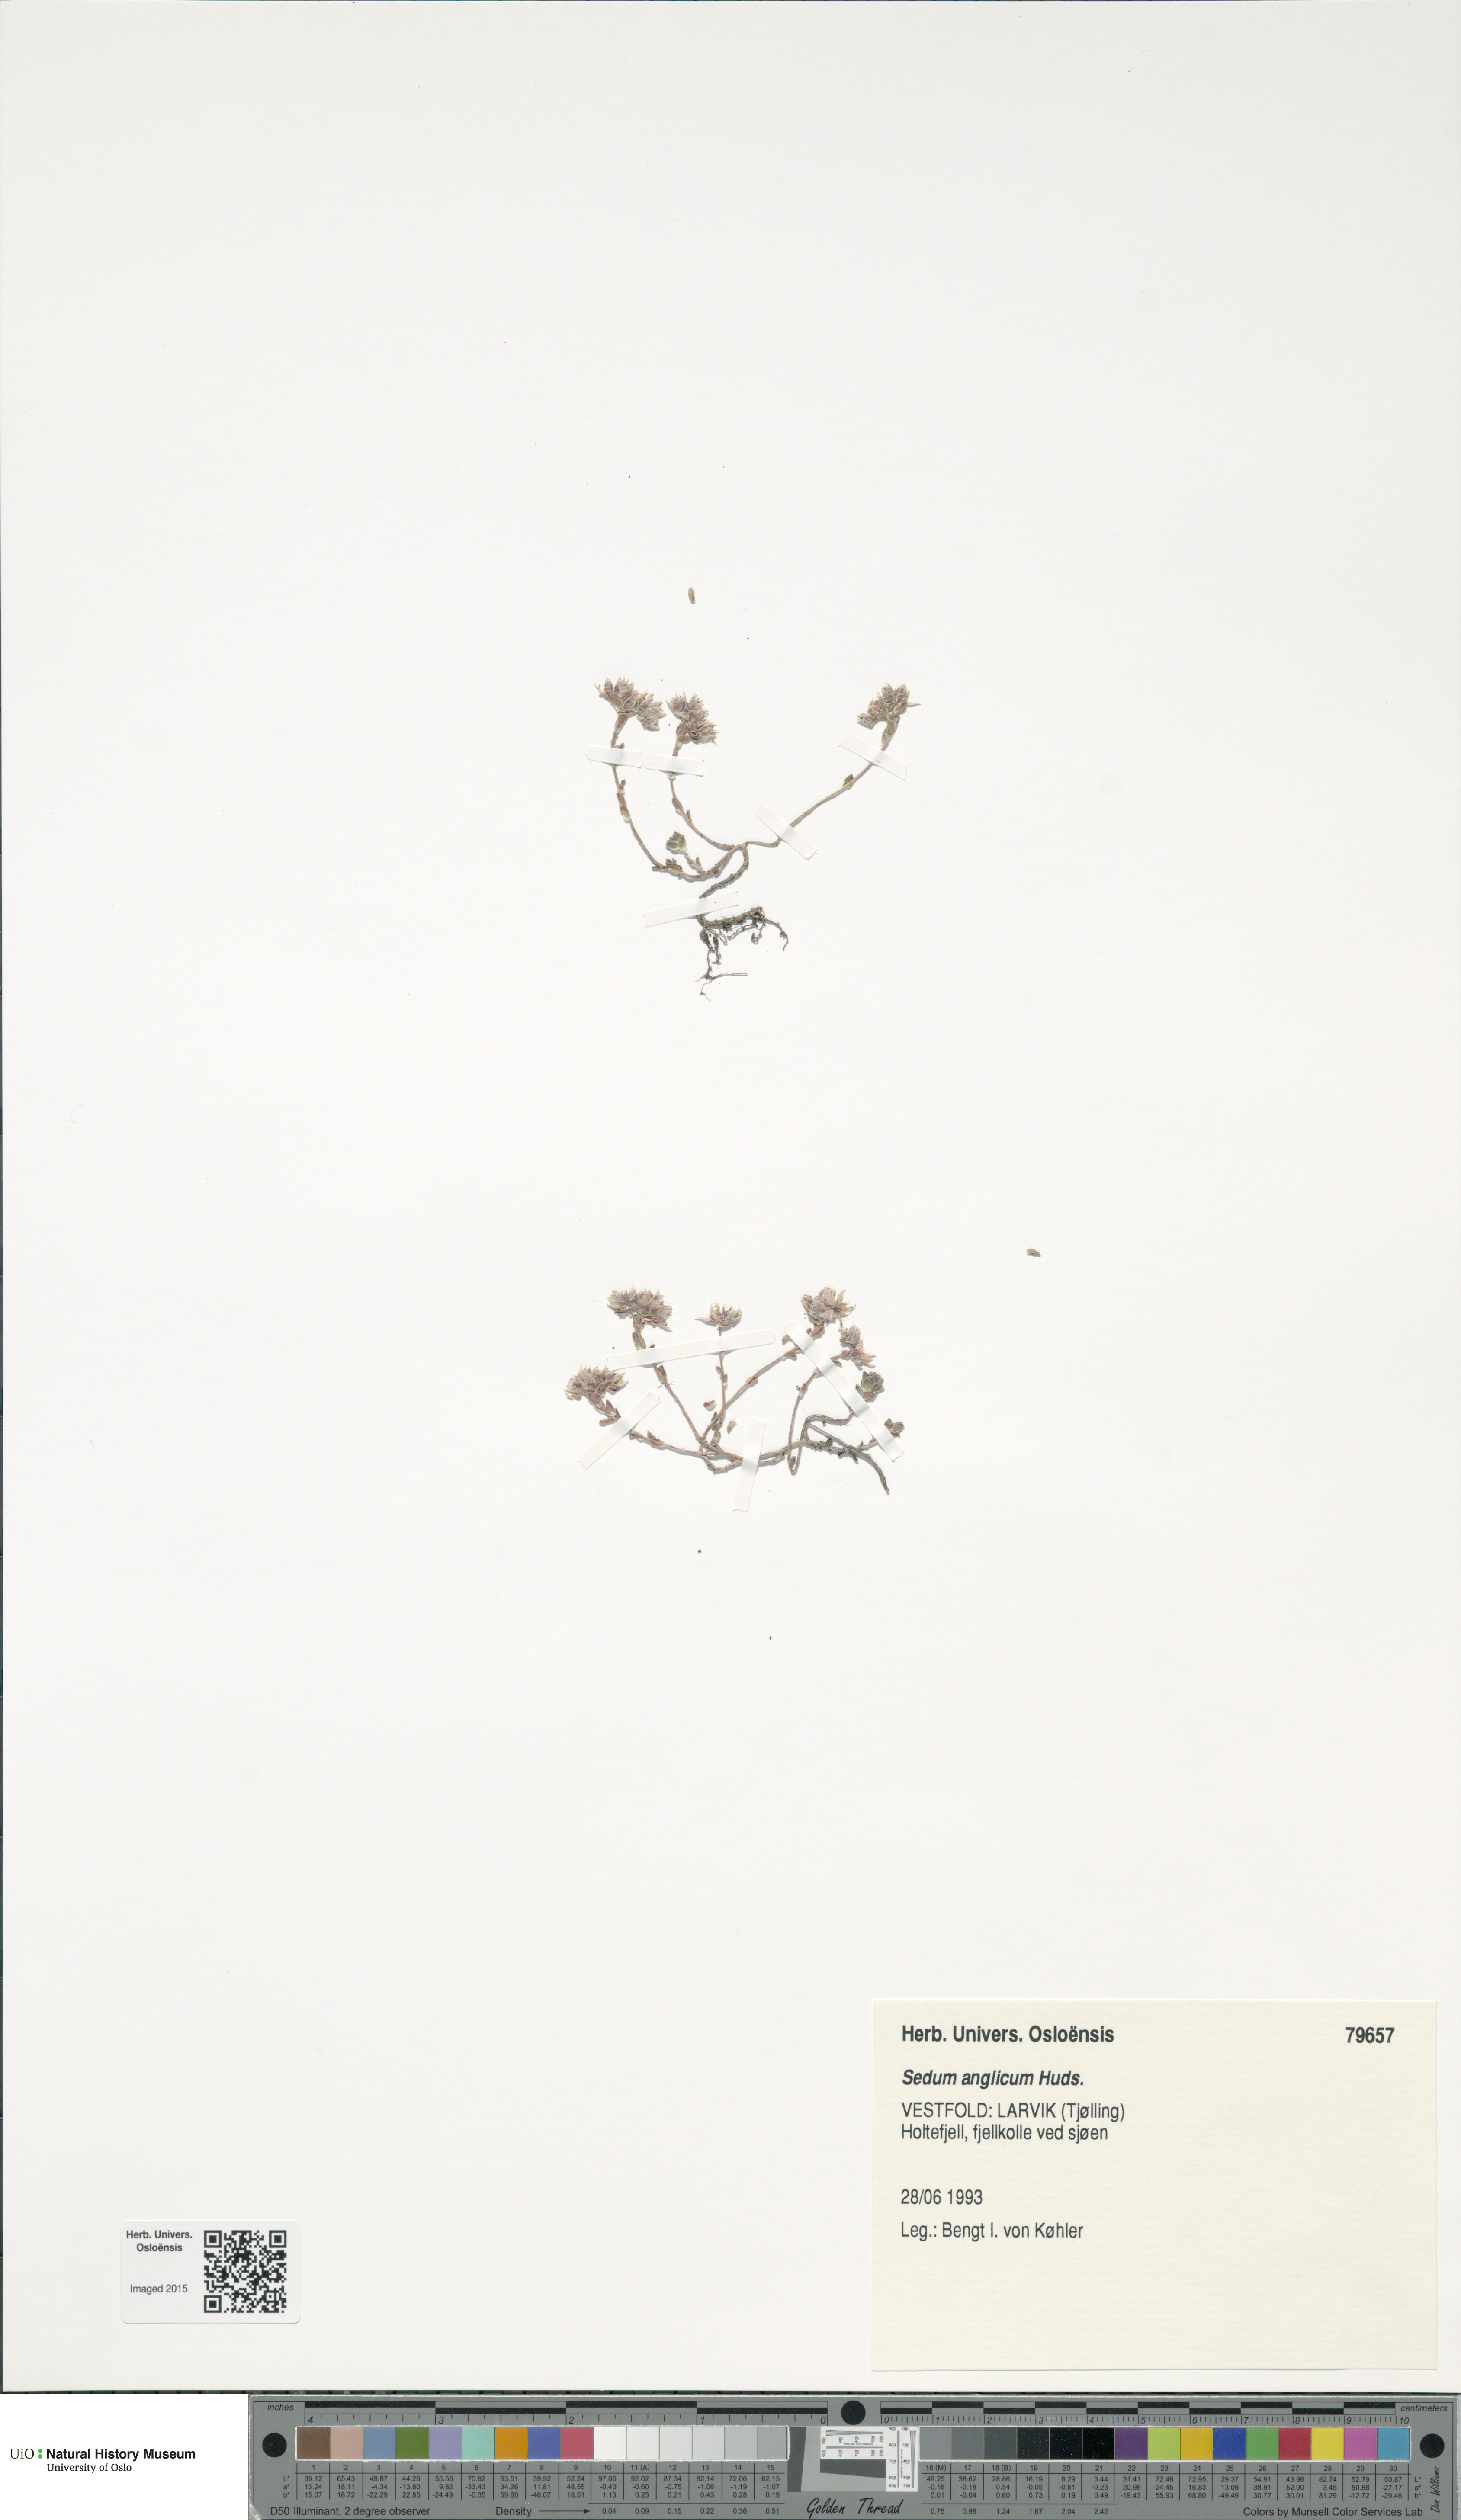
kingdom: Plantae
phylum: Tracheophyta
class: Magnoliopsida
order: Saxifragales
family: Crassulaceae
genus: Sedum
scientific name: Sedum anglicum
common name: English stonecrop
